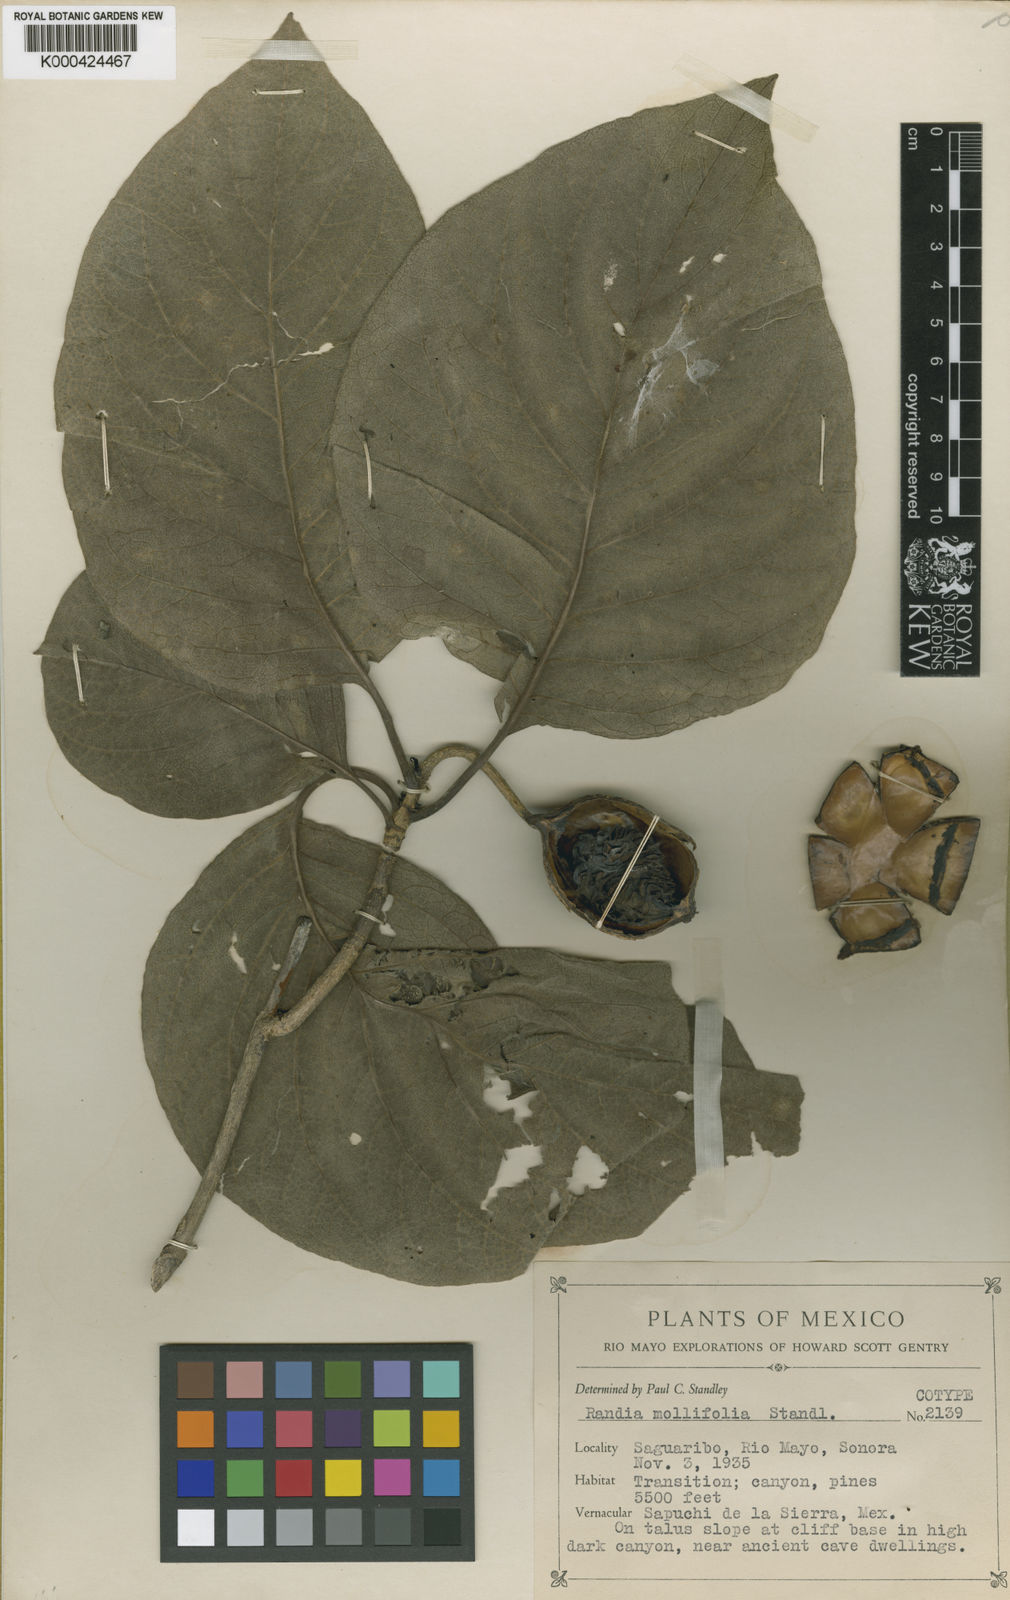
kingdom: Plantae
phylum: Tracheophyta
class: Magnoliopsida
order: Gentianales
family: Rubiaceae
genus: Randia
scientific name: Randia mollifolia
